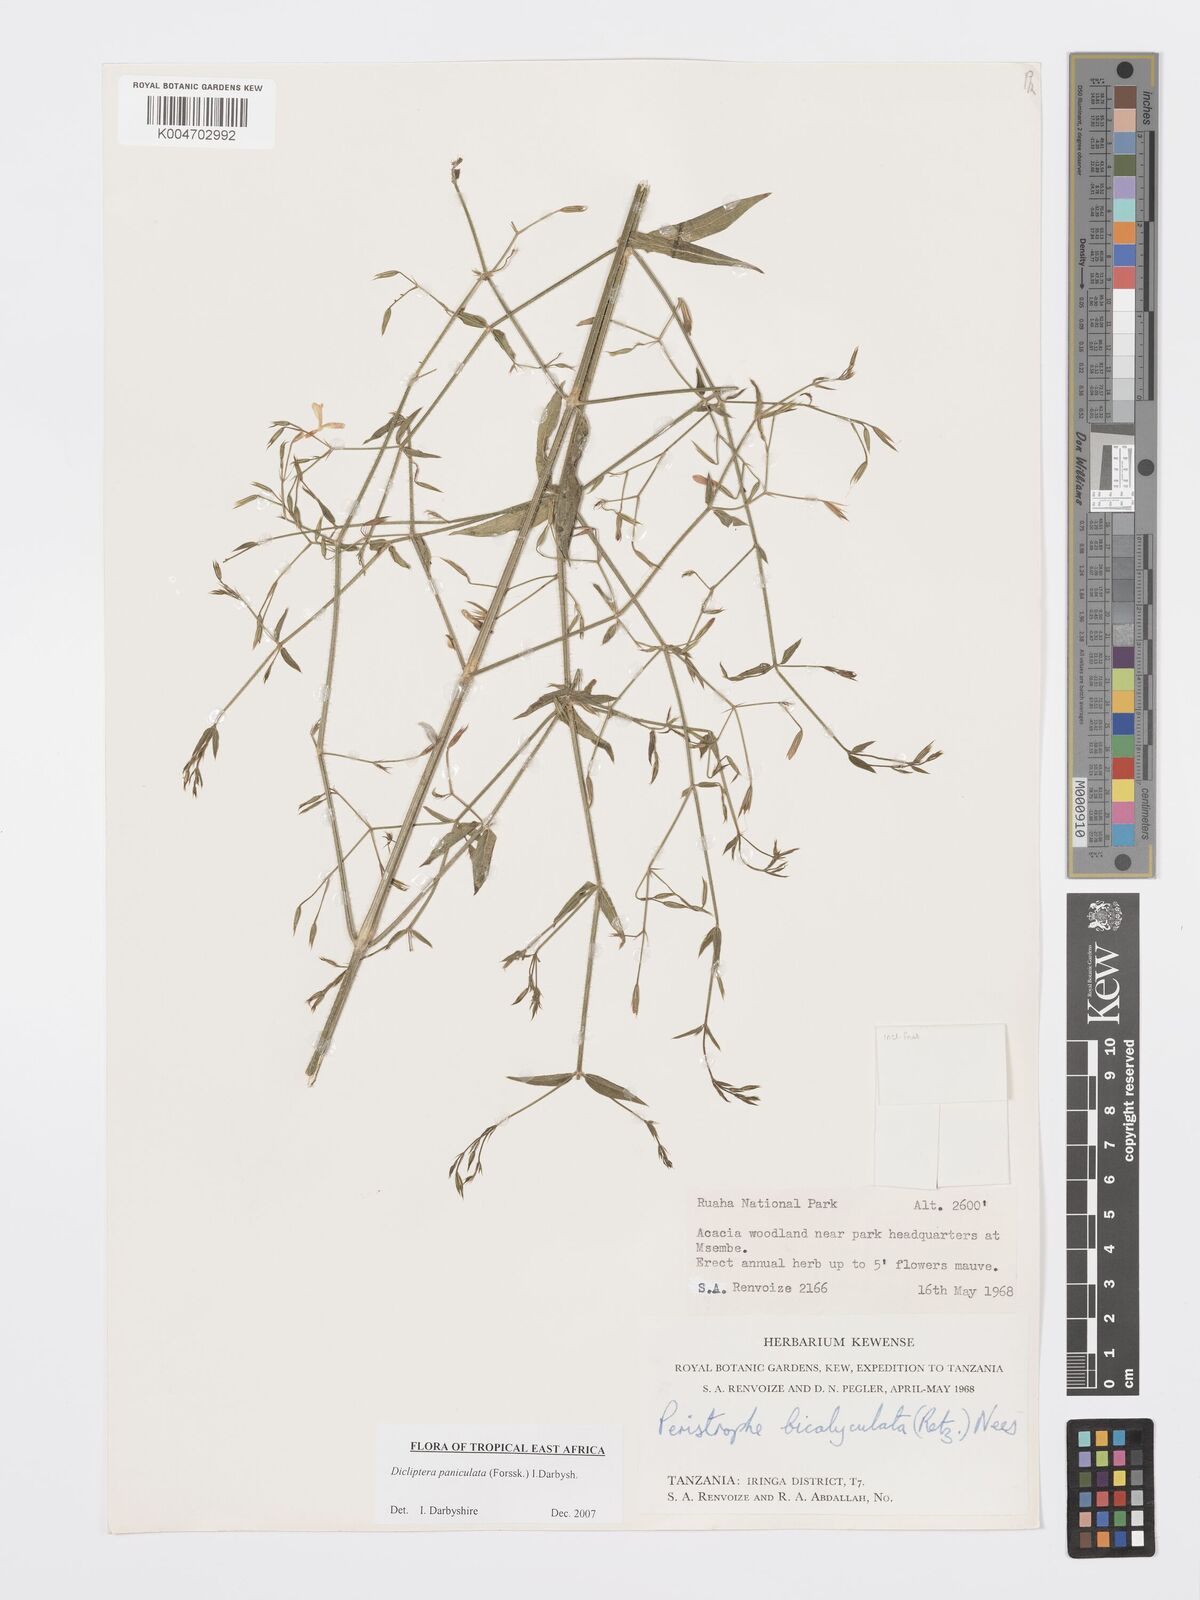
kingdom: Plantae
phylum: Tracheophyta
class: Magnoliopsida
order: Lamiales
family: Acanthaceae
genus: Dicliptera
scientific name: Dicliptera paniculata
